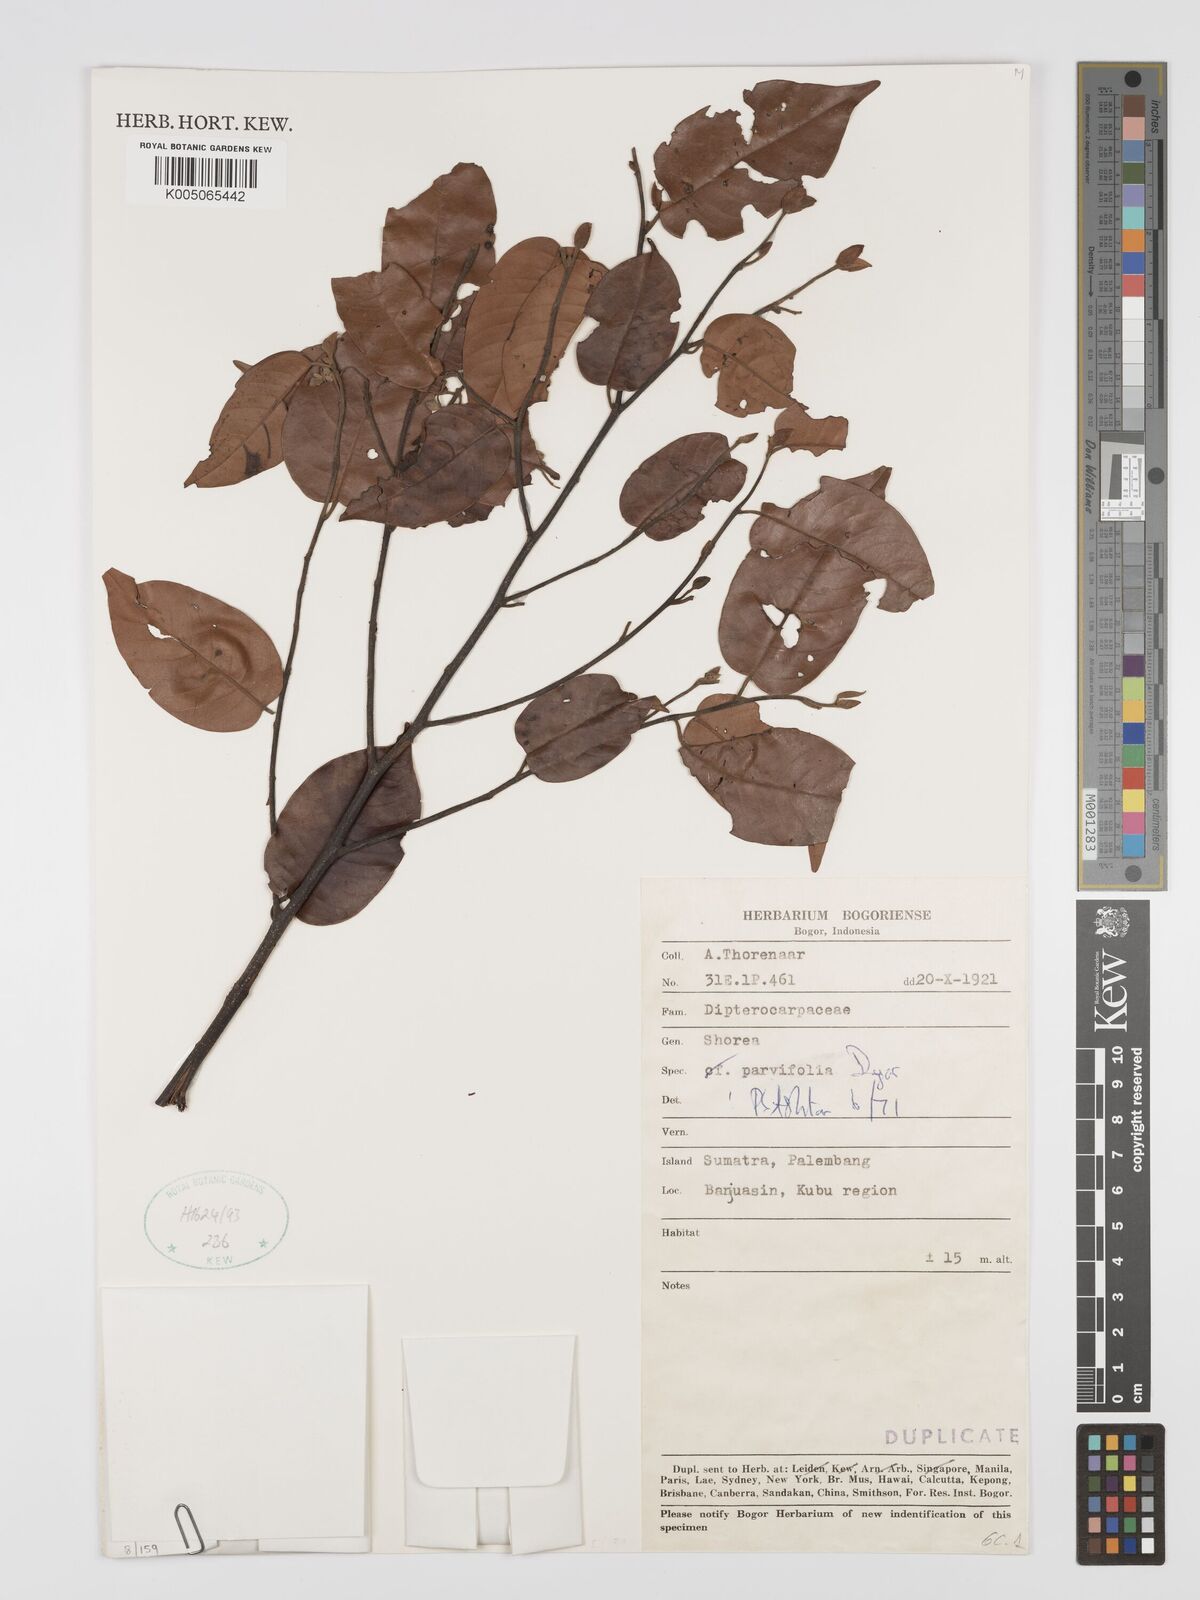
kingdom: Plantae
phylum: Tracheophyta
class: Magnoliopsida
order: Malvales
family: Dipterocarpaceae
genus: Shorea
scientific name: Shorea parvifolia
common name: Light red meranti
